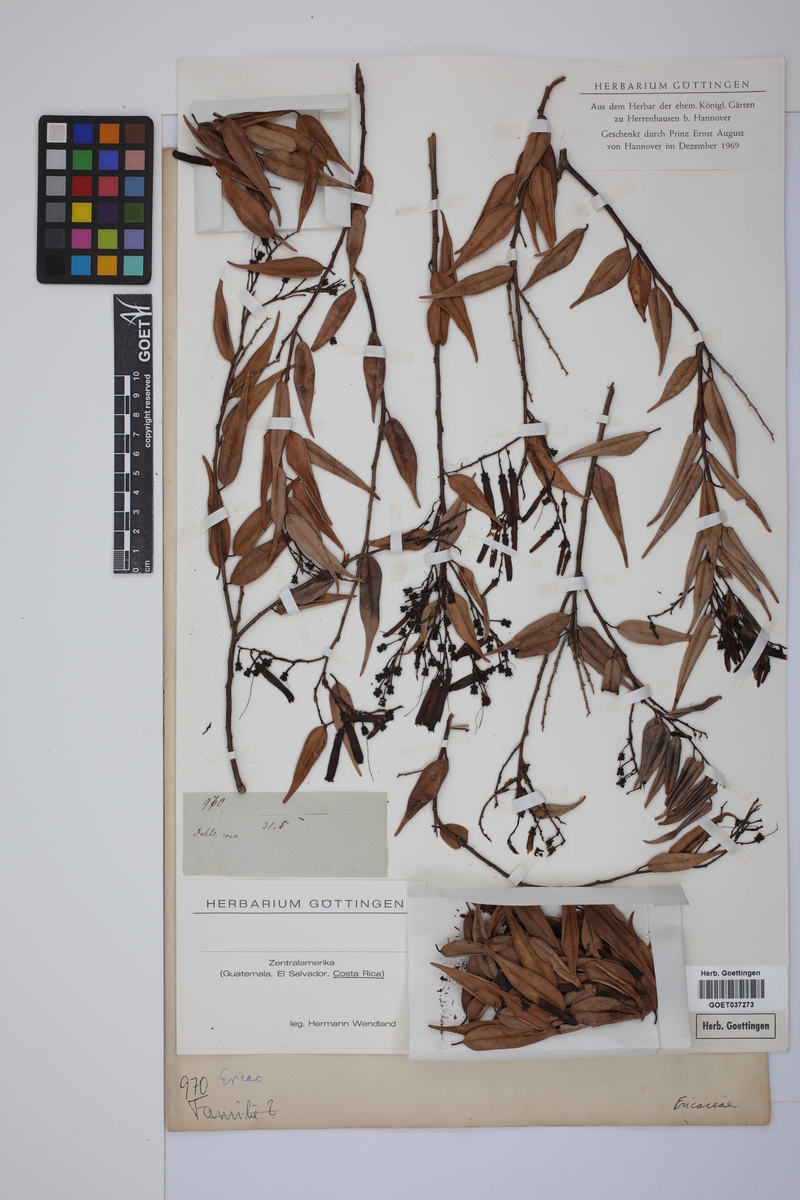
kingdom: Plantae
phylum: Tracheophyta
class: Magnoliopsida
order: Ericales
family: Ericaceae
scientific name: Ericaceae
